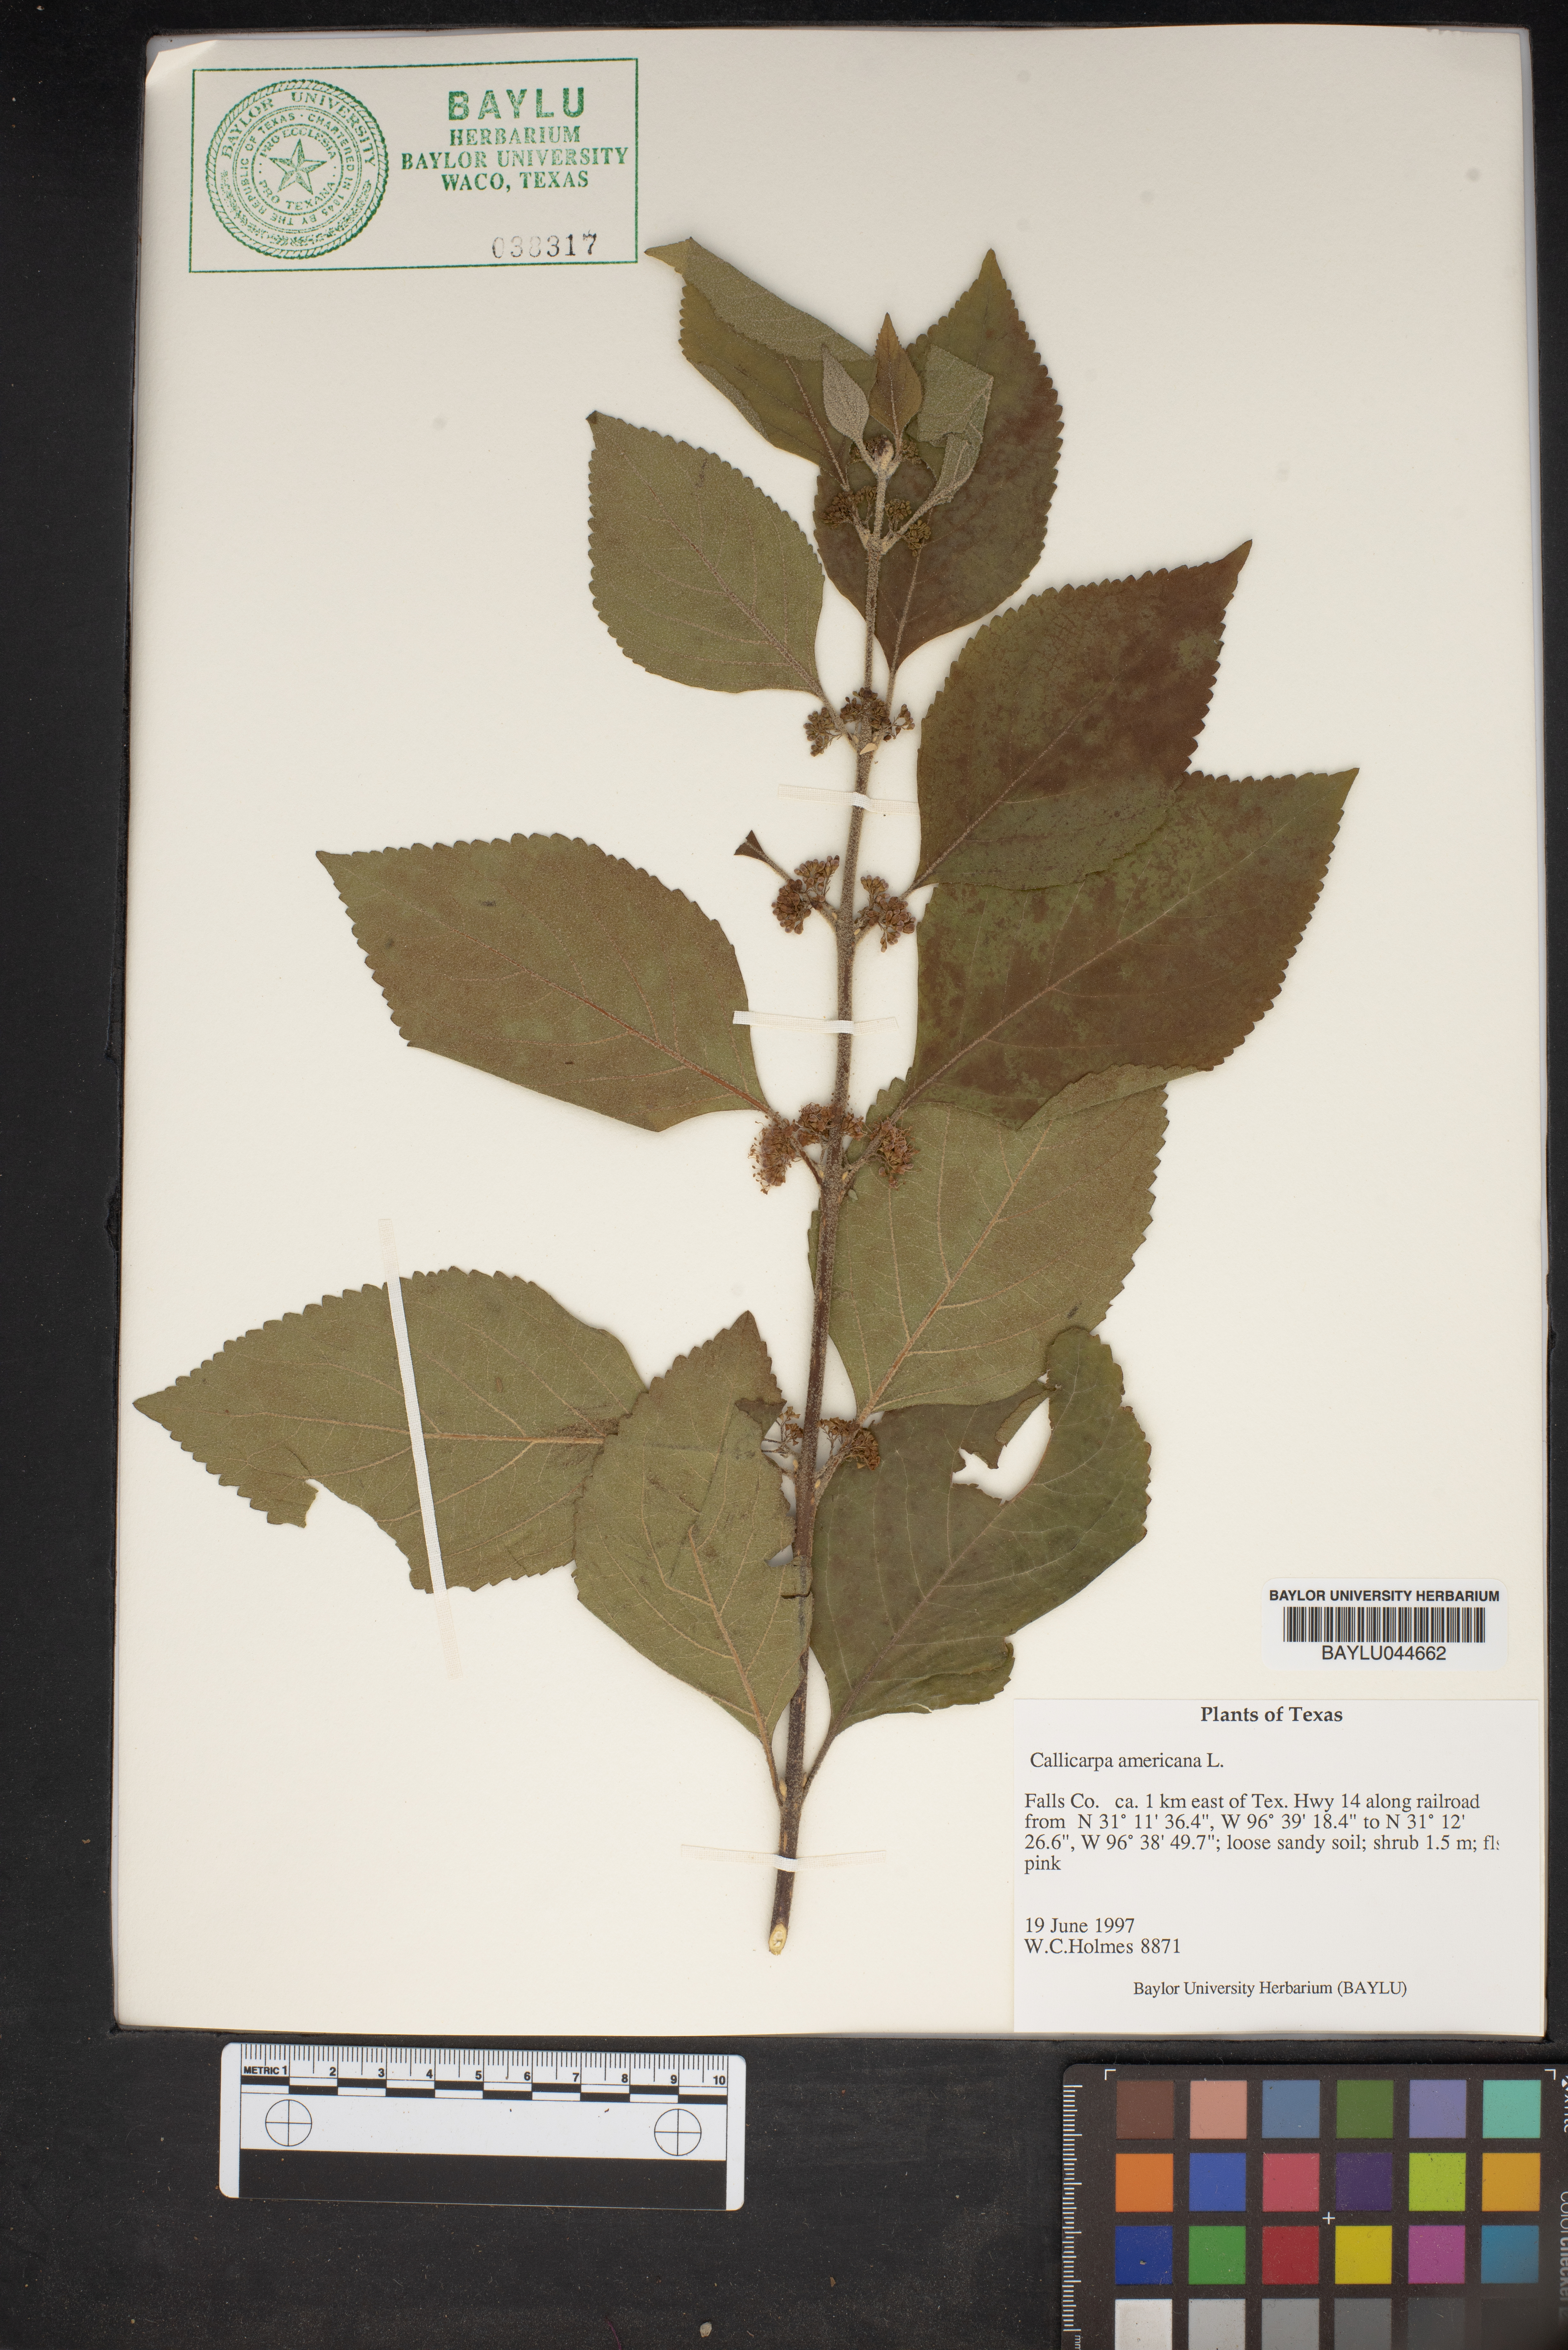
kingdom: Plantae
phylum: Tracheophyta
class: Magnoliopsida
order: Lamiales
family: Lamiaceae
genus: Callicarpa
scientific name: Callicarpa americana
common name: American beautyberry
